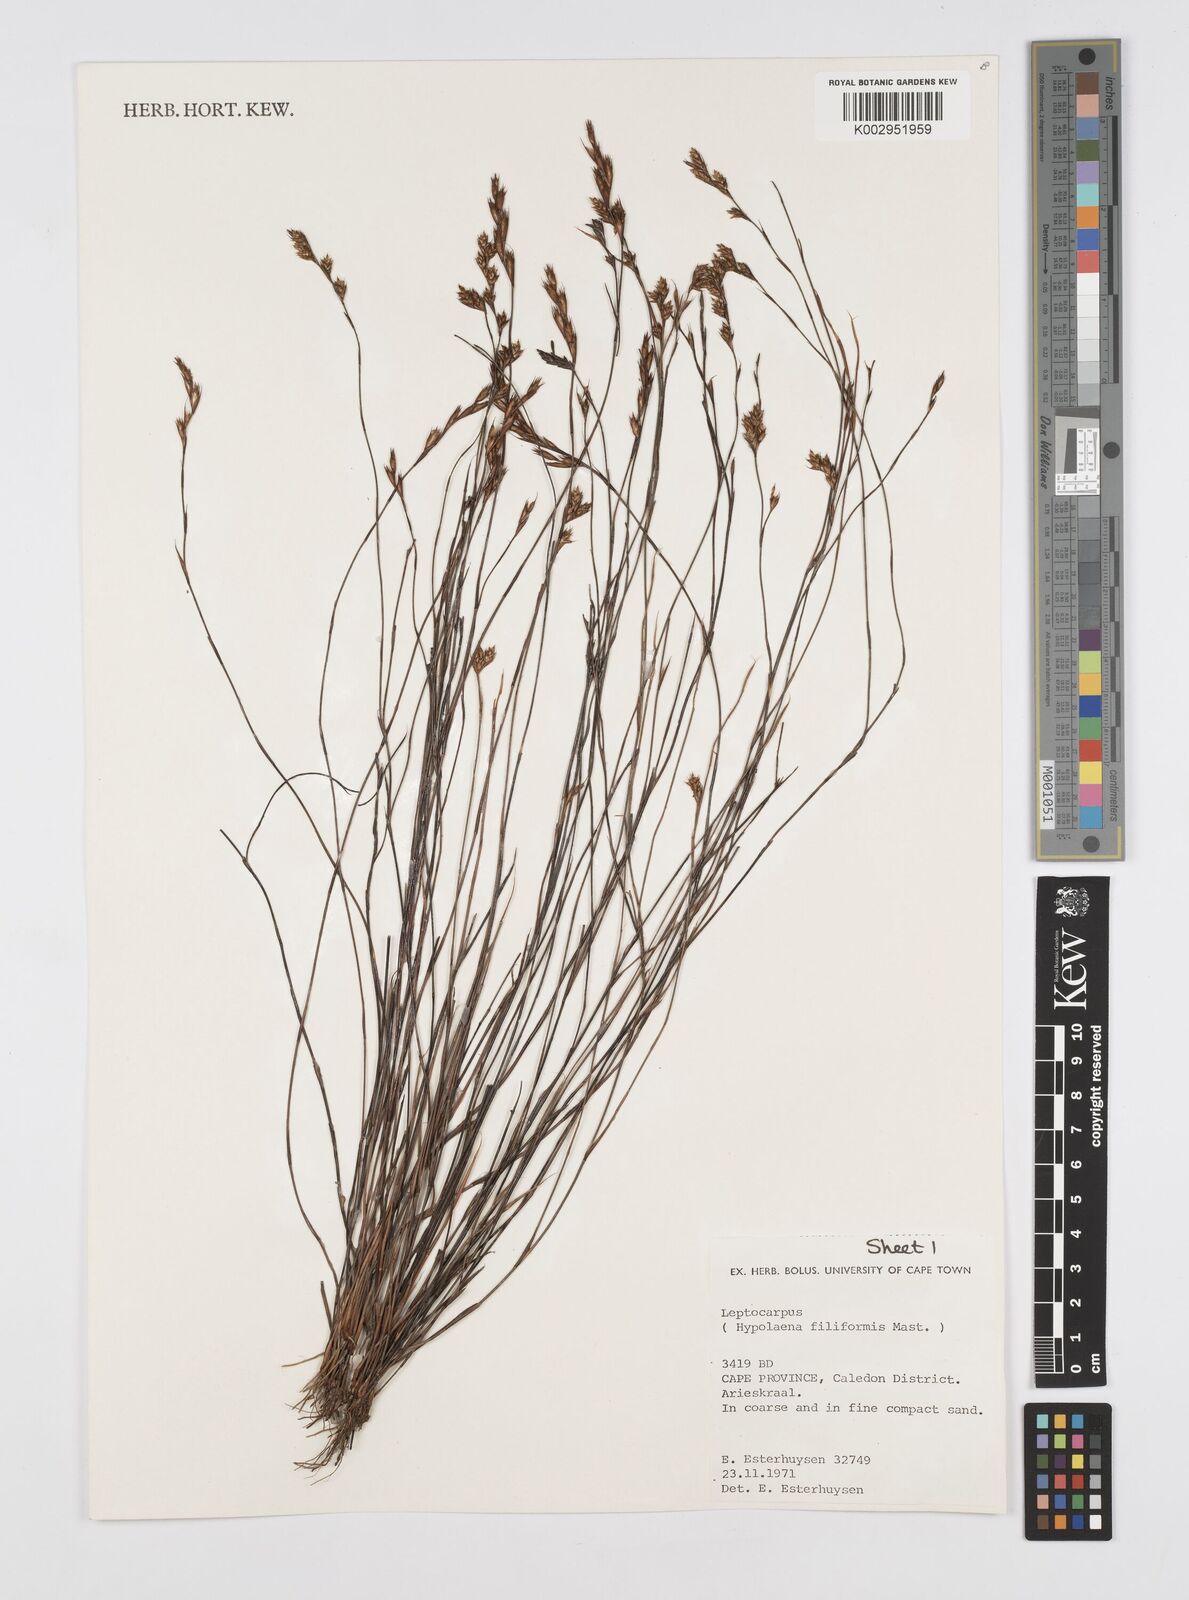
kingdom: Plantae
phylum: Tracheophyta
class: Liliopsida
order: Poales
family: Restionaceae
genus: Restio
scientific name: Restio filiformis
